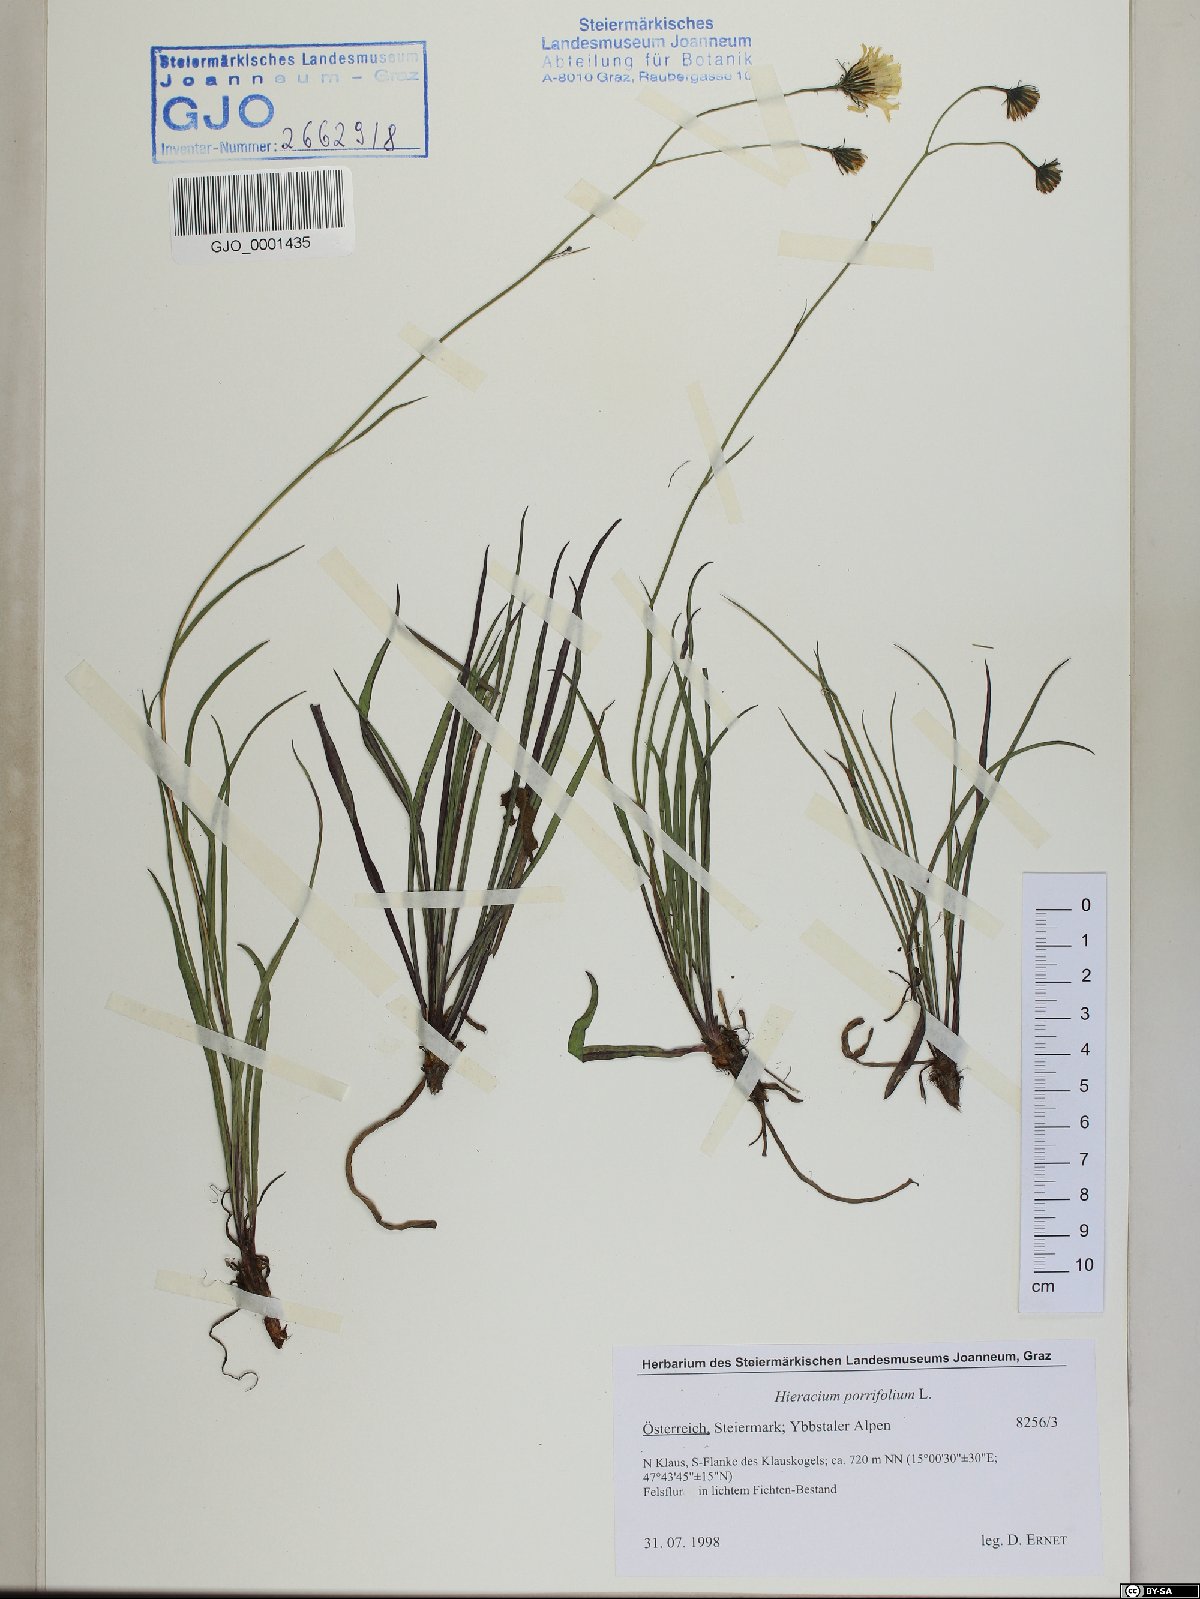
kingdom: Plantae
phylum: Tracheophyta
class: Magnoliopsida
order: Asterales
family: Asteraceae
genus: Hieracium
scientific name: Hieracium porrifolium
